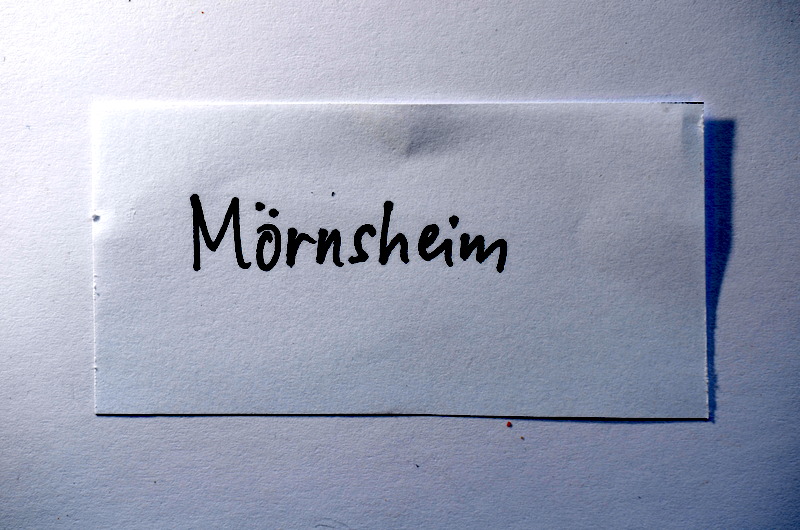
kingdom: Animalia
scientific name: Animalia
